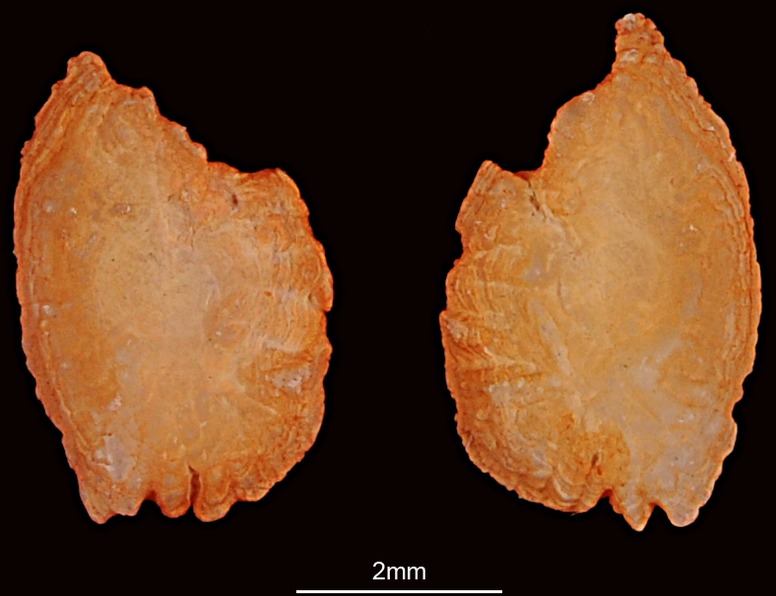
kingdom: Animalia
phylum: Chordata
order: Perciformes
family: Monodactylidae
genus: Monodactylus
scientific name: Monodactylus argenteus
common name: Silver moony
